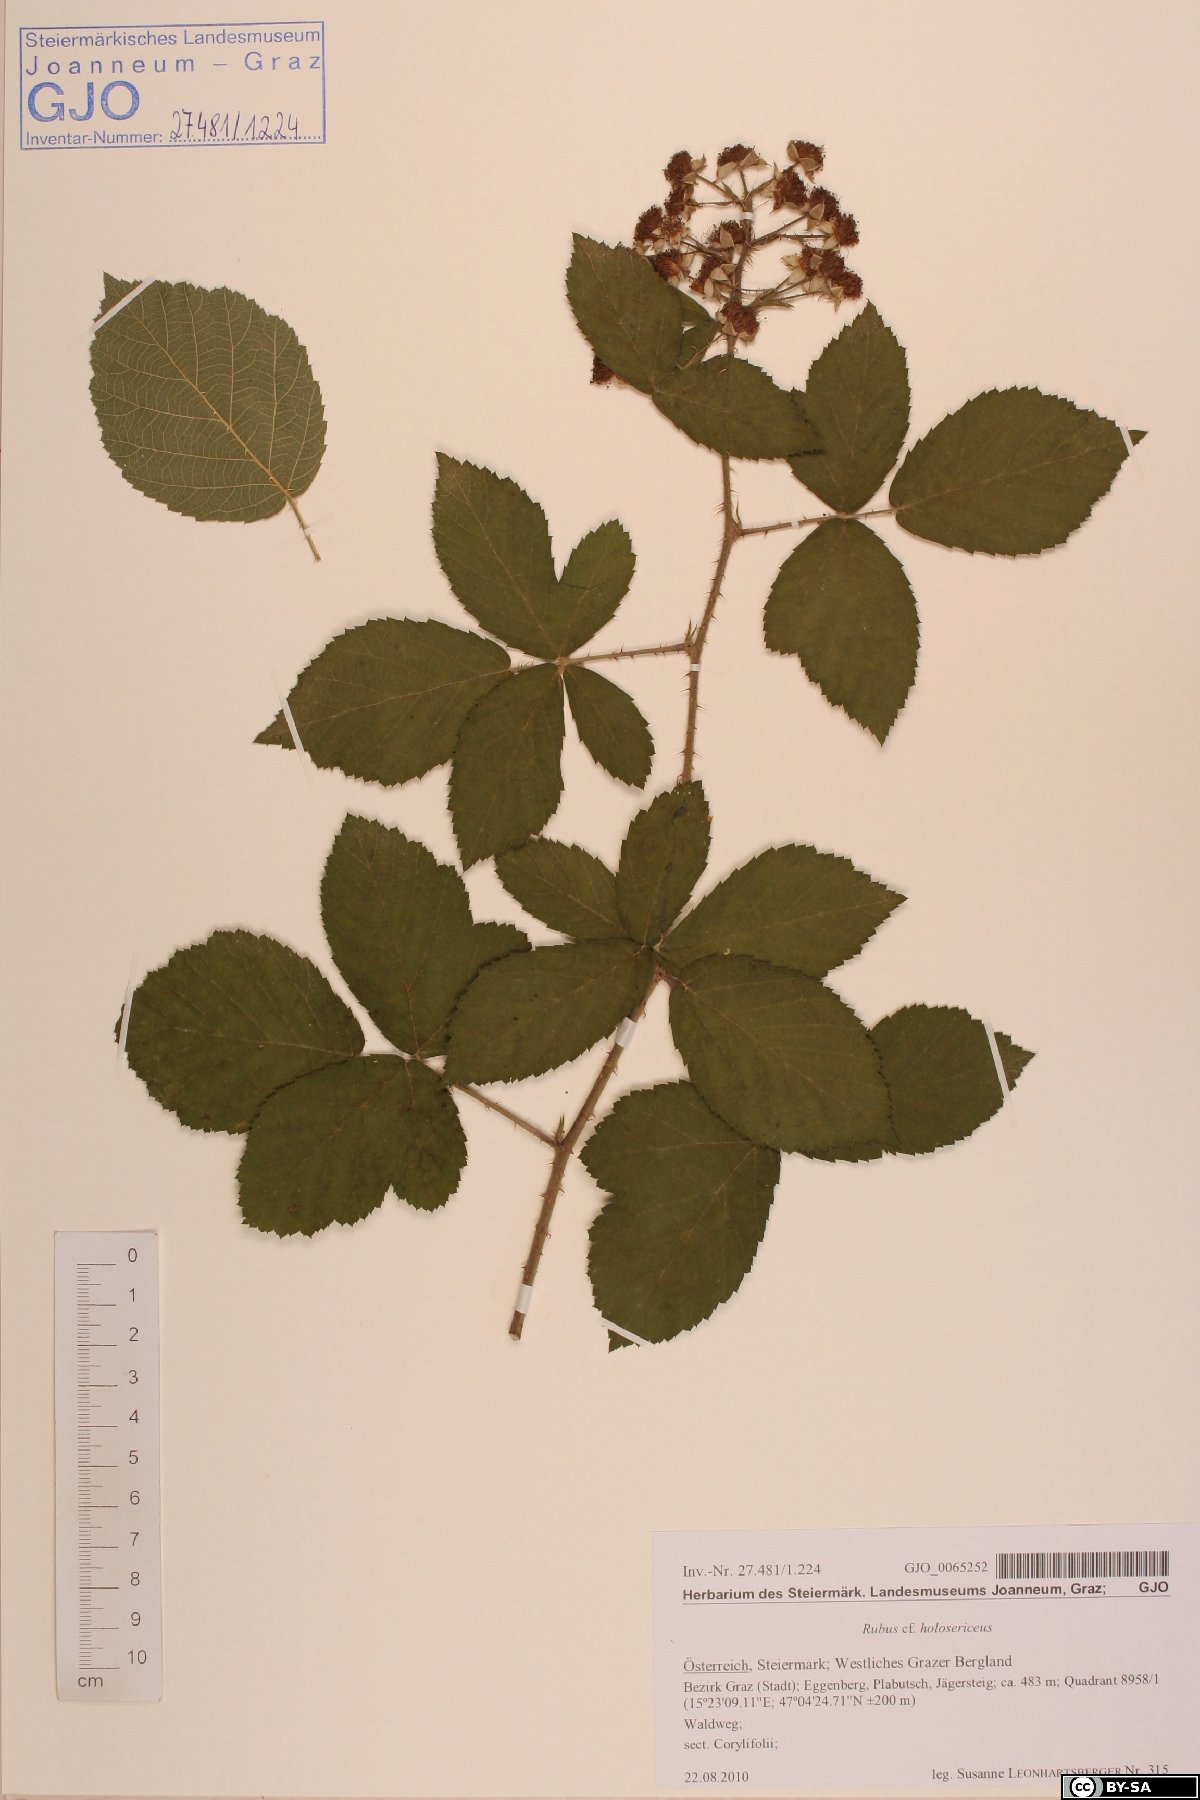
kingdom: Plantae
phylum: Tracheophyta
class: Magnoliopsida
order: Rosales
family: Rosaceae
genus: Rubus
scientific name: Rubus holosericeus
